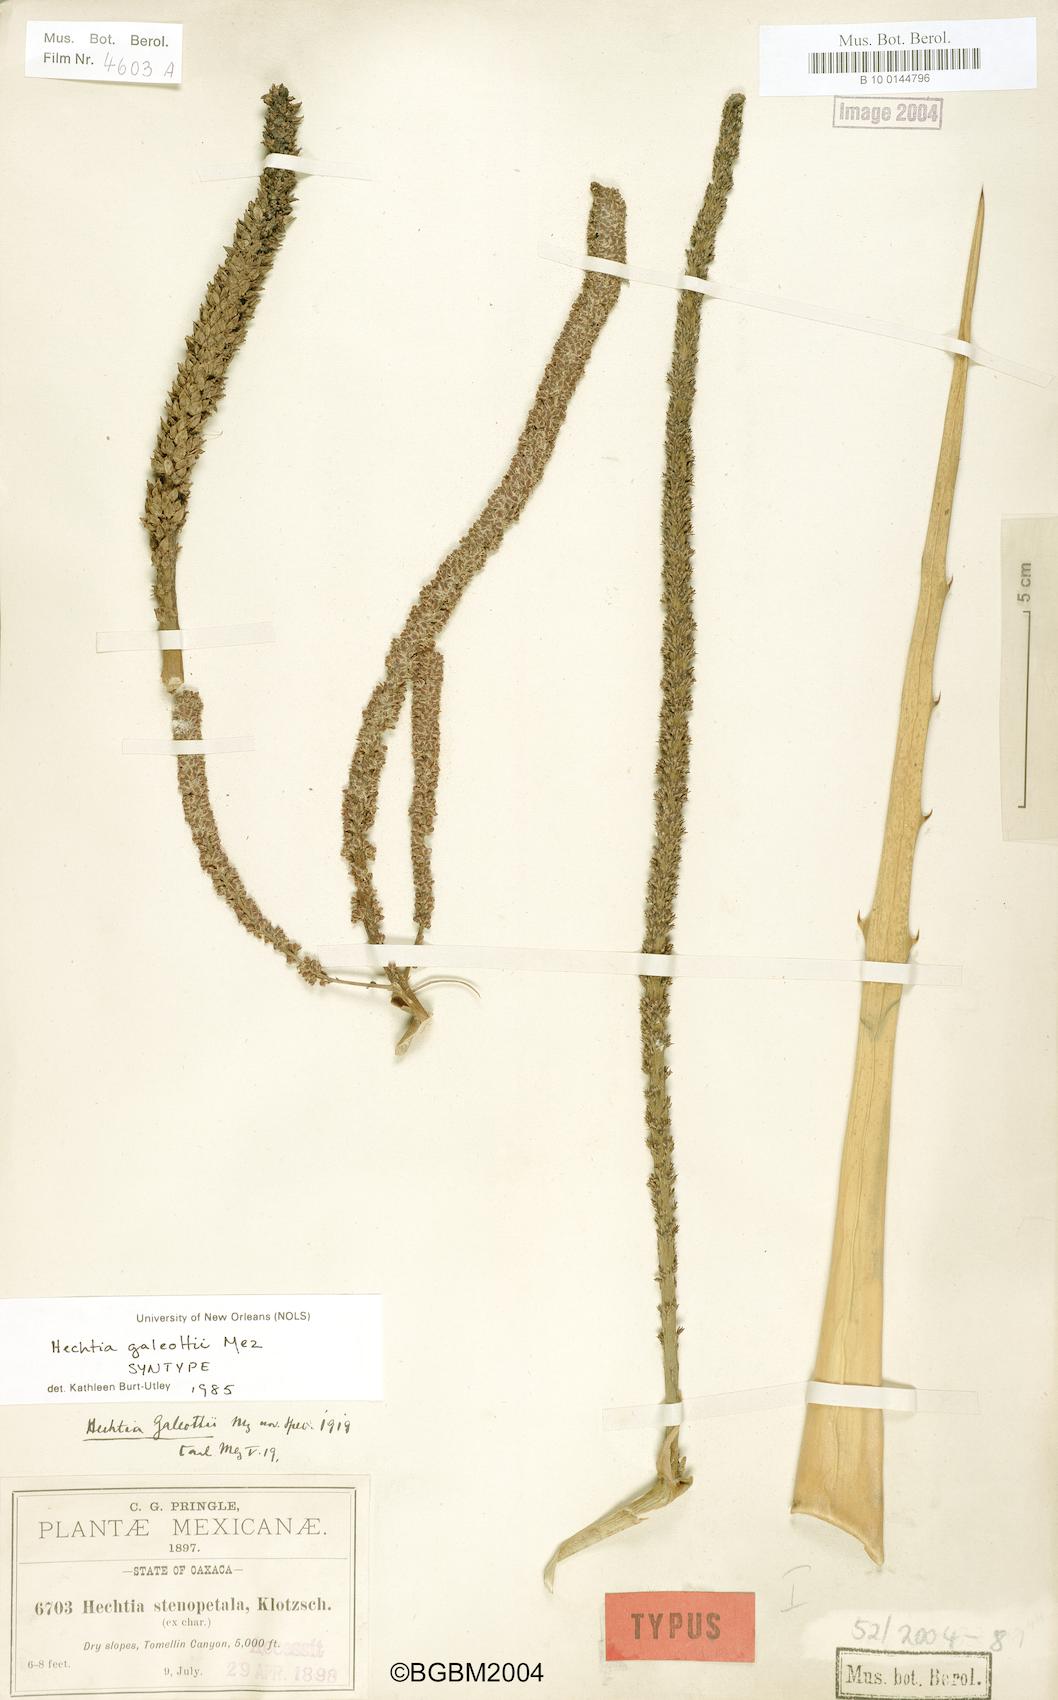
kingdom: Plantae
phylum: Tracheophyta
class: Liliopsida
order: Poales
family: Bromeliaceae
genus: Hechtia
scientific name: Hechtia galeottii
